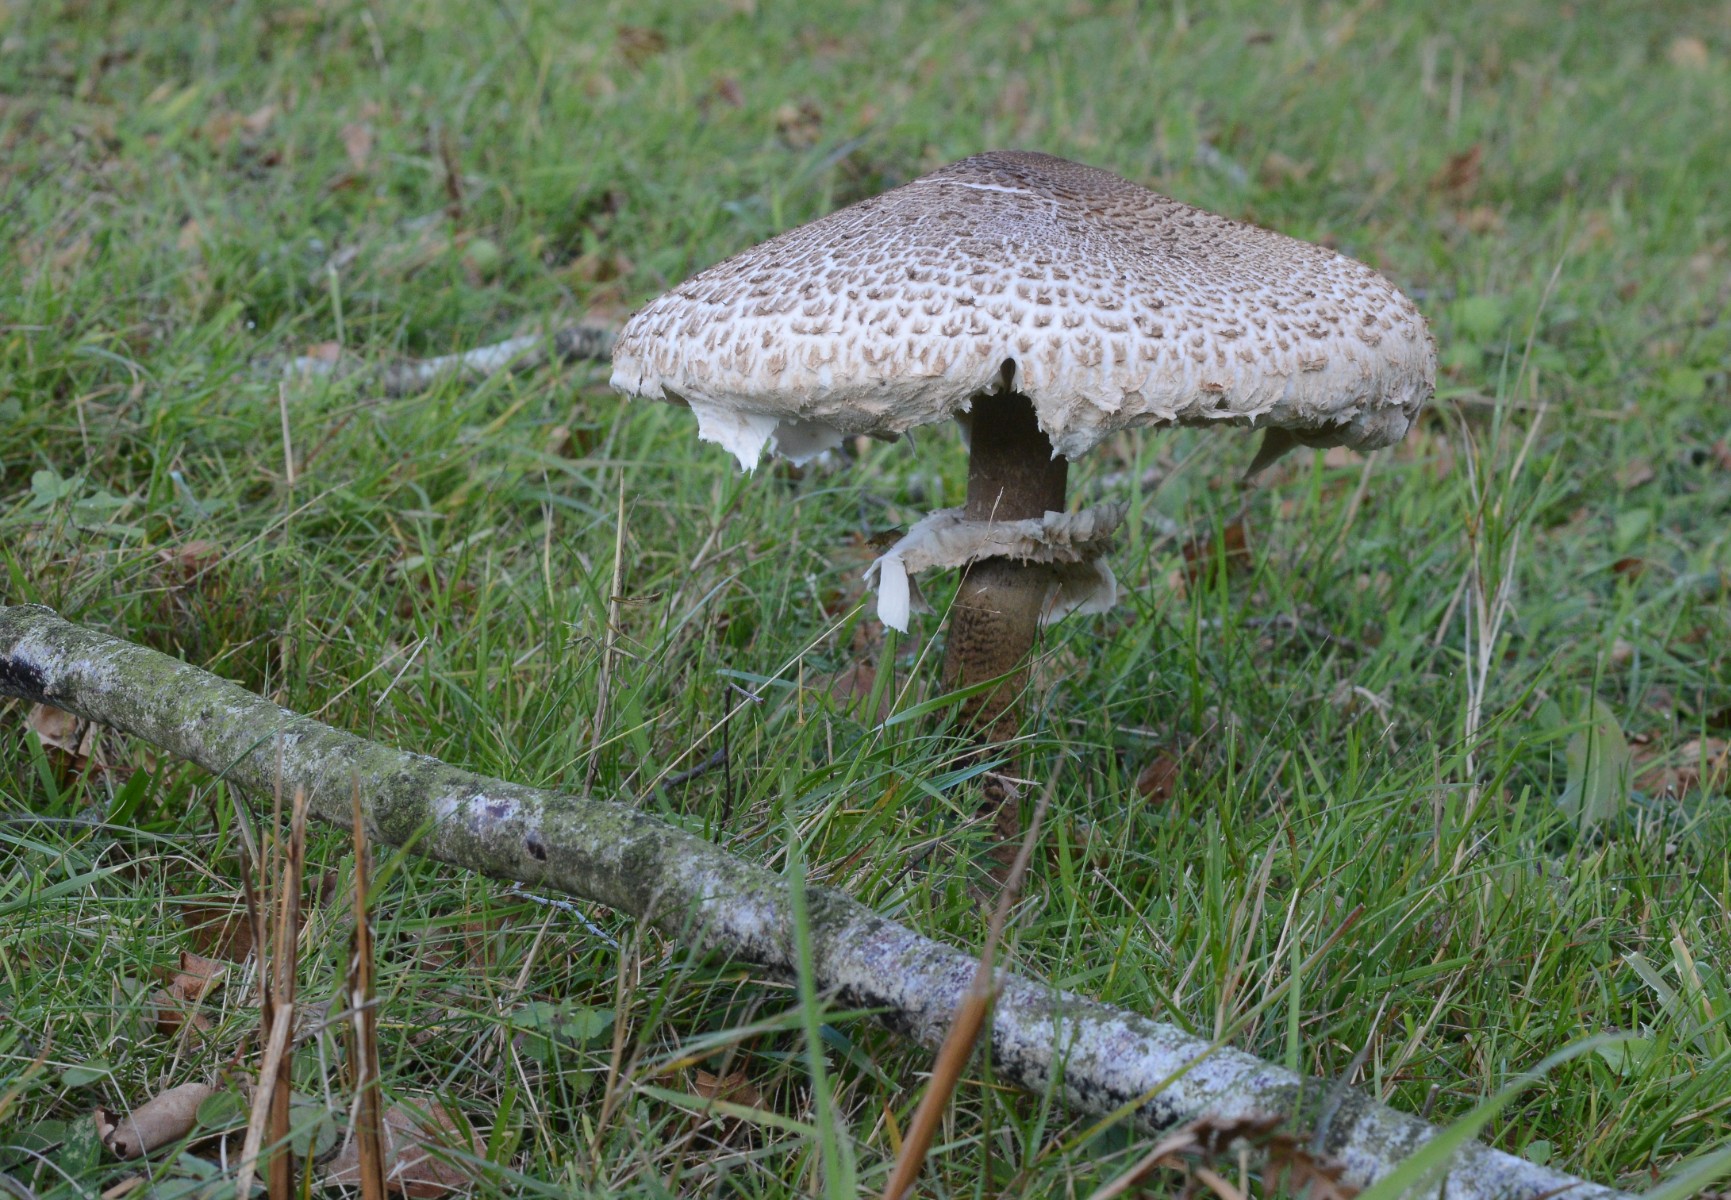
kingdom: Fungi
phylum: Basidiomycota
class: Agaricomycetes
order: Agaricales
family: Agaricaceae
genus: Macrolepiota
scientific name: Macrolepiota procera
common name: stor kæmpeparasolhat
